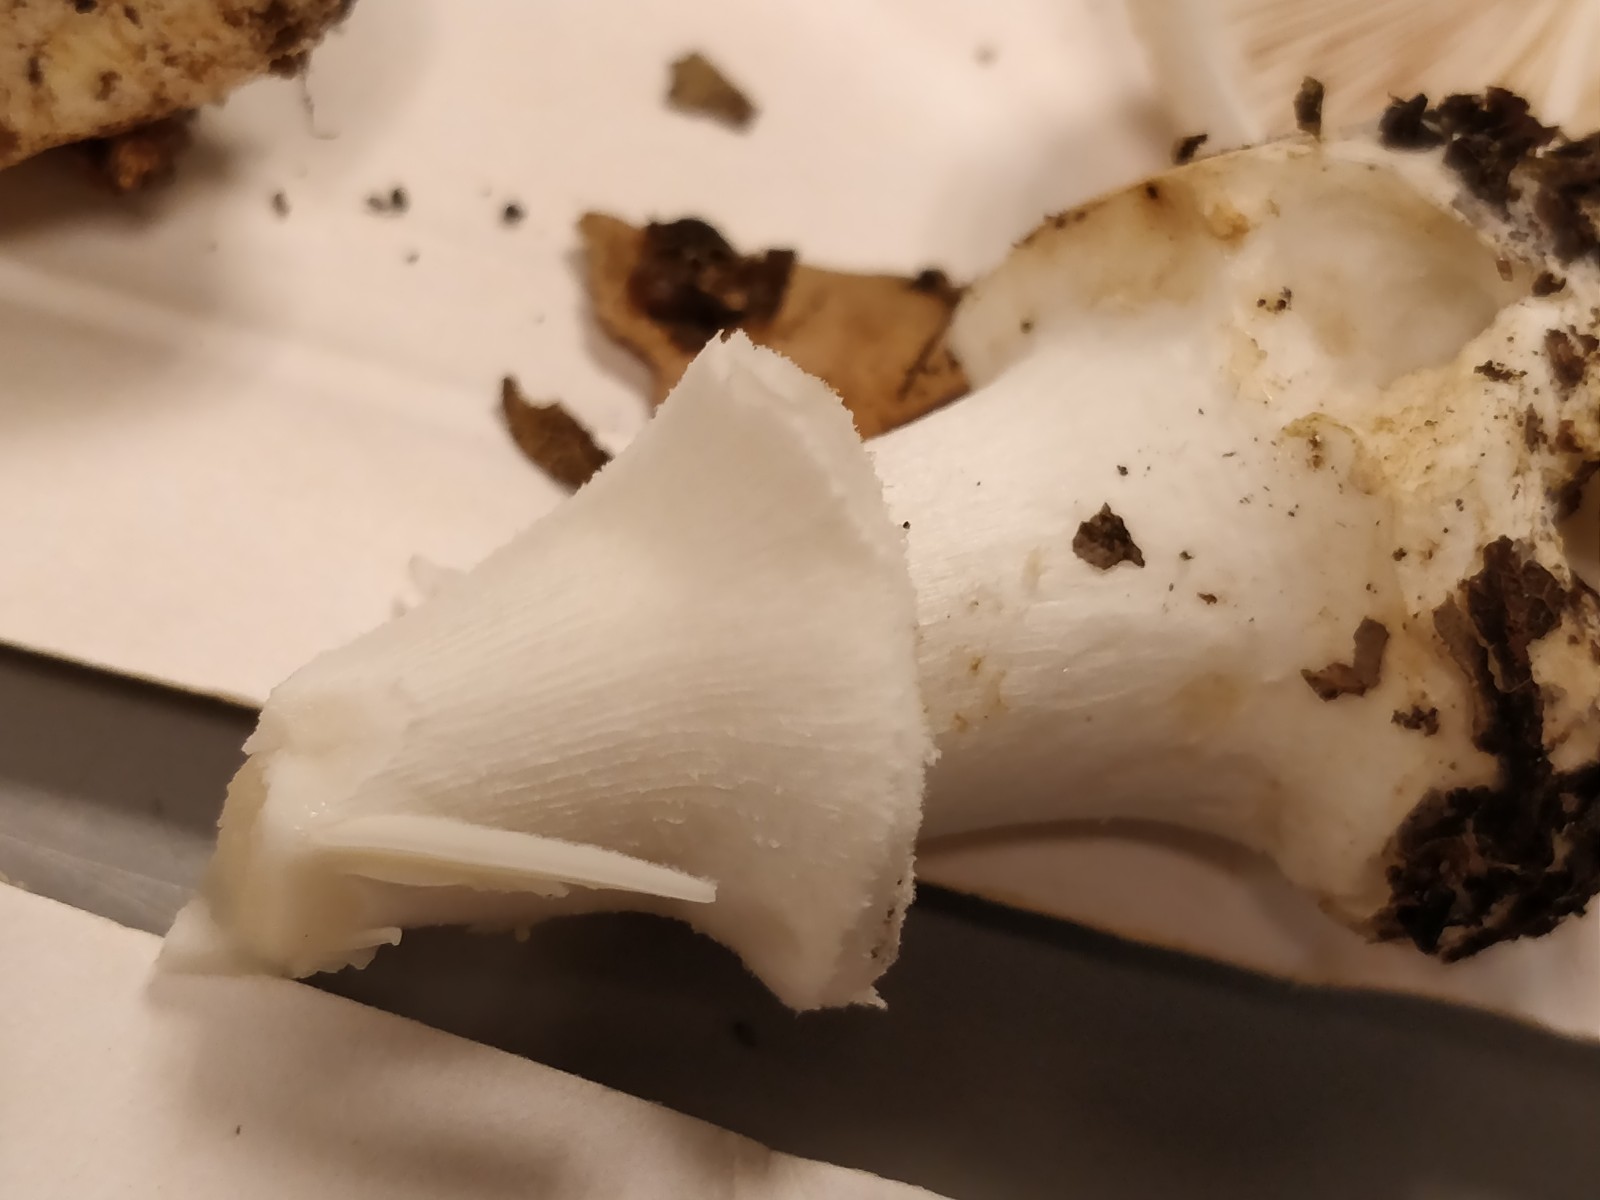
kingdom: Fungi
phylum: Basidiomycota
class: Agaricomycetes
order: Agaricales
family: Amanitaceae
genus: Amanita
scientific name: Amanita citrina
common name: kugleknoldet fluesvamp
